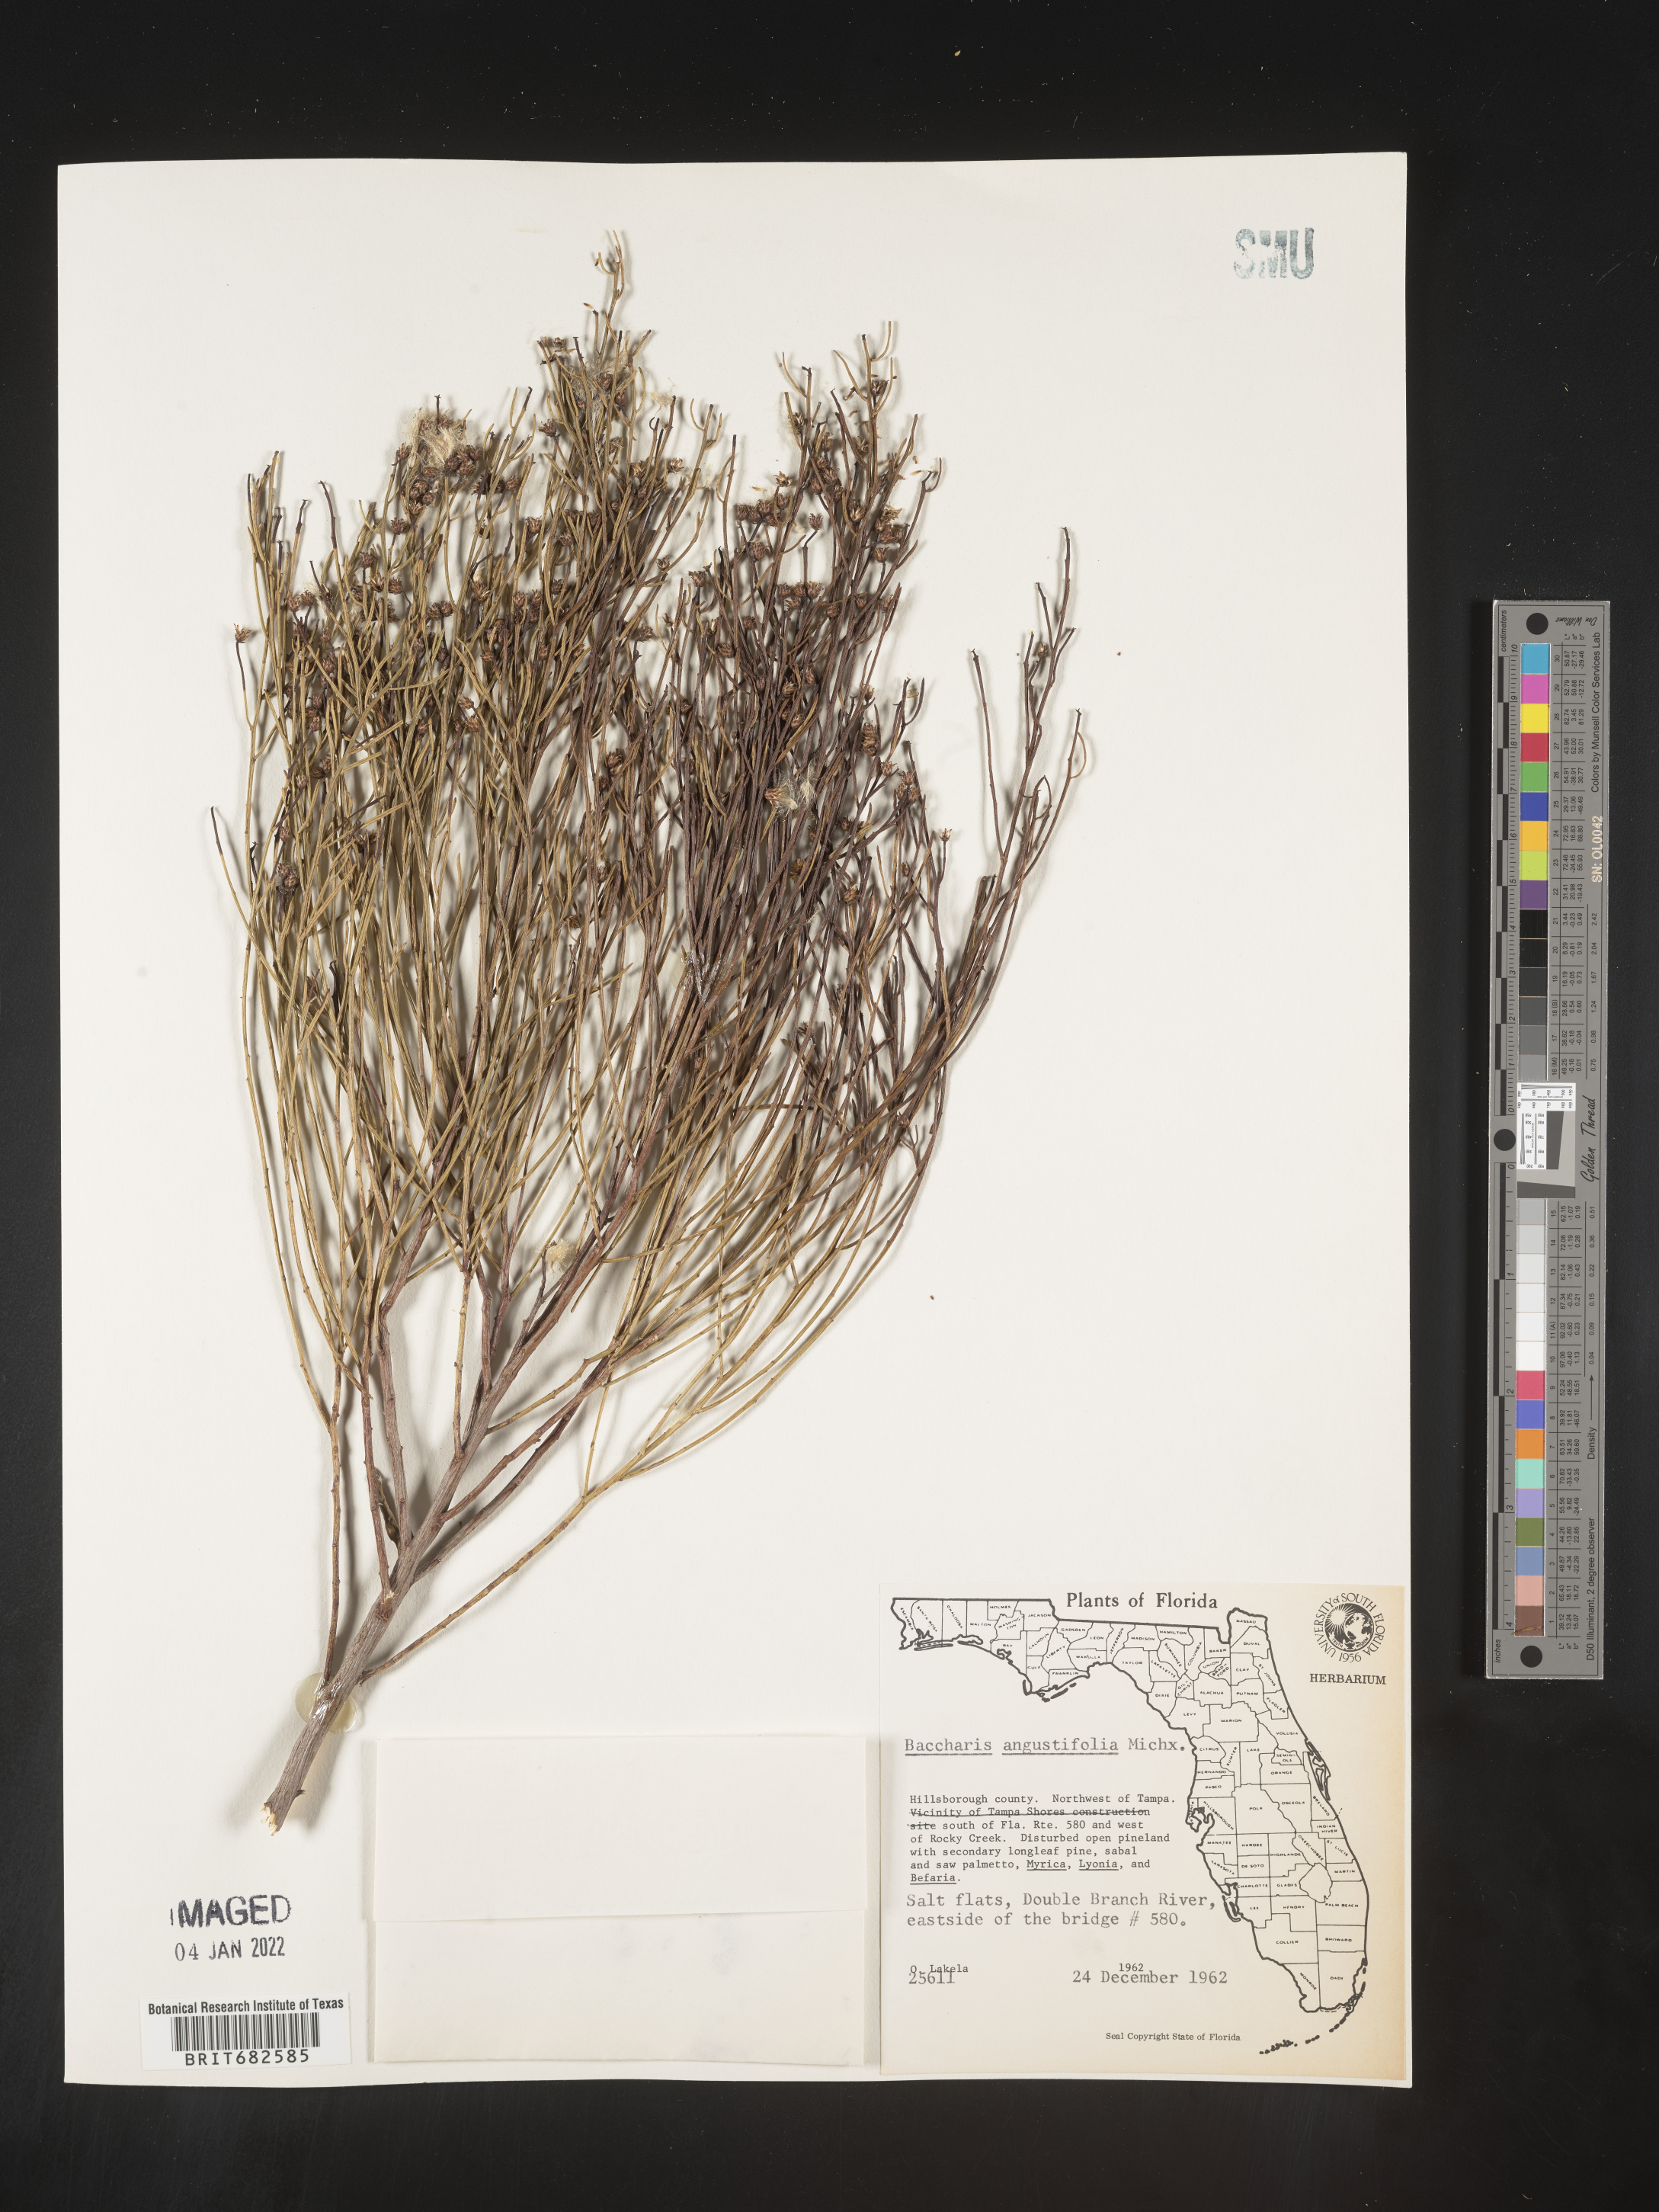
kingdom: Plantae
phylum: Tracheophyta
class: Magnoliopsida
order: Asterales
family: Asteraceae
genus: Baccharis
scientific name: Baccharis angustifolia
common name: Narrow-leaf baccharis
